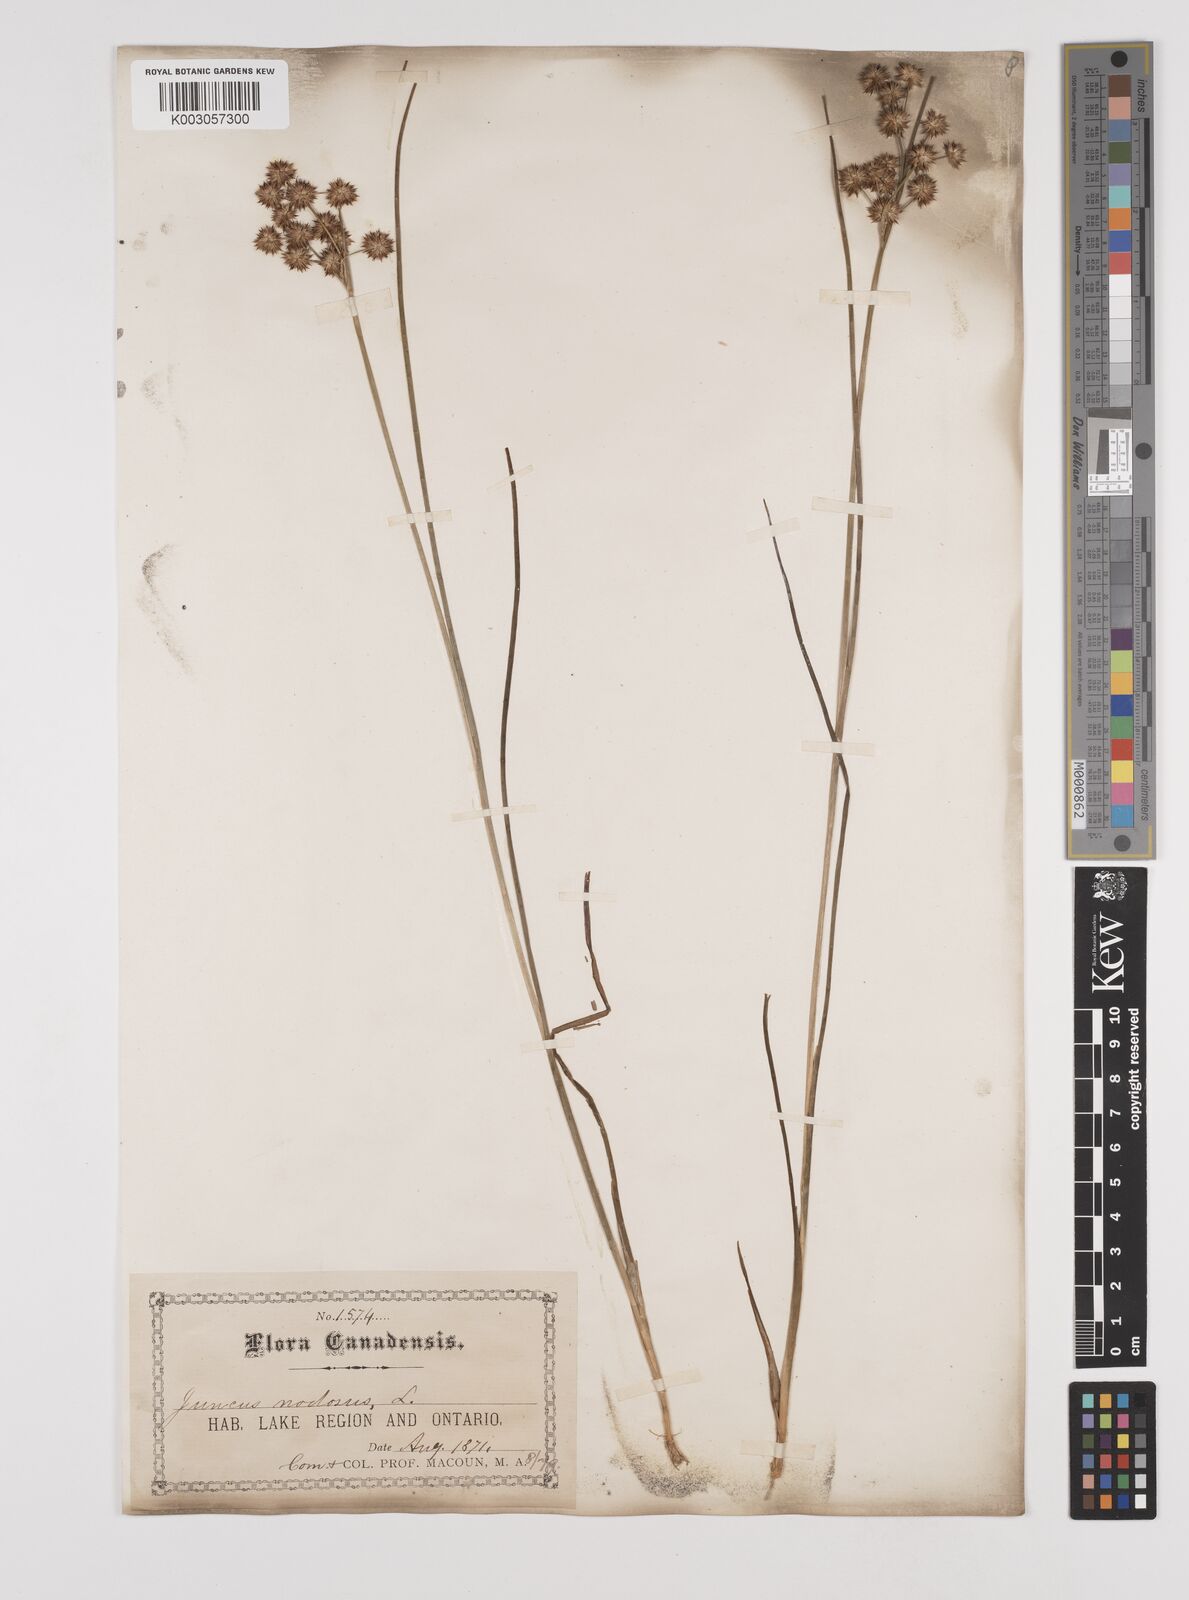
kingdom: Plantae
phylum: Tracheophyta
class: Liliopsida
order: Poales
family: Juncaceae
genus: Juncus
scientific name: Juncus nodosus
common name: Knotted rush
